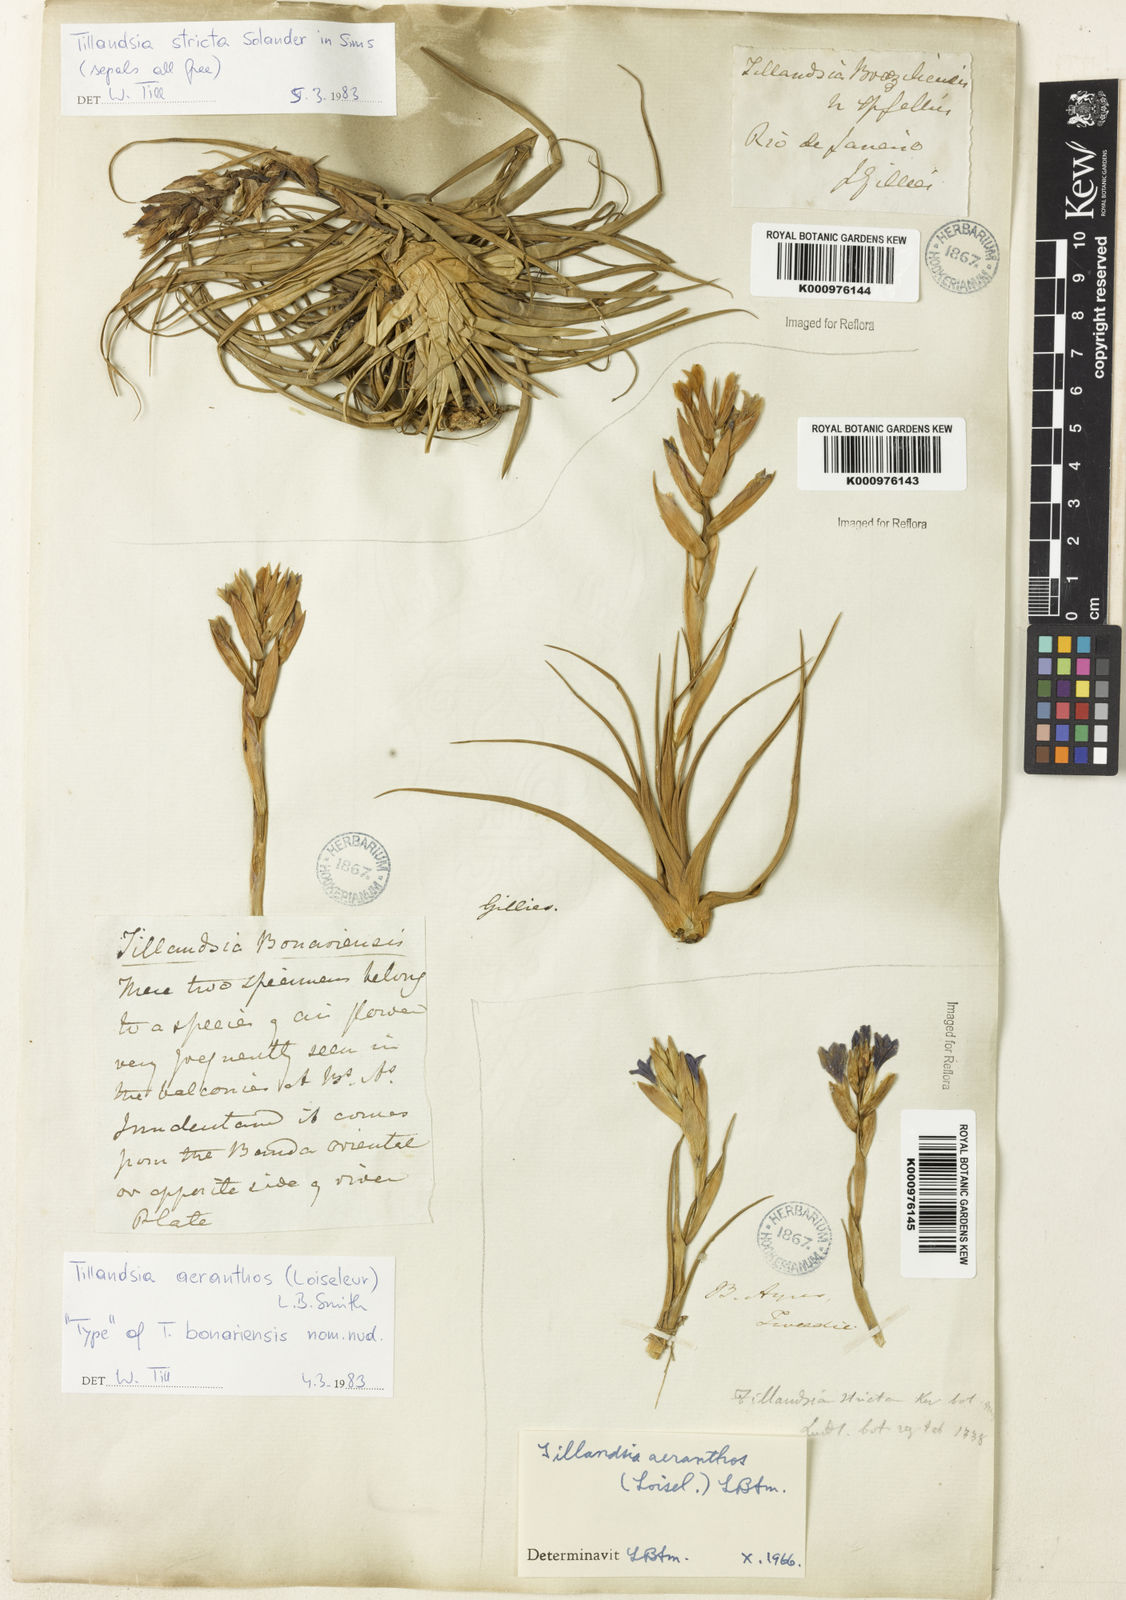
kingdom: Plantae
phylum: Tracheophyta
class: Liliopsida
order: Poales
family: Bromeliaceae
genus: Tillandsia
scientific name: Tillandsia
